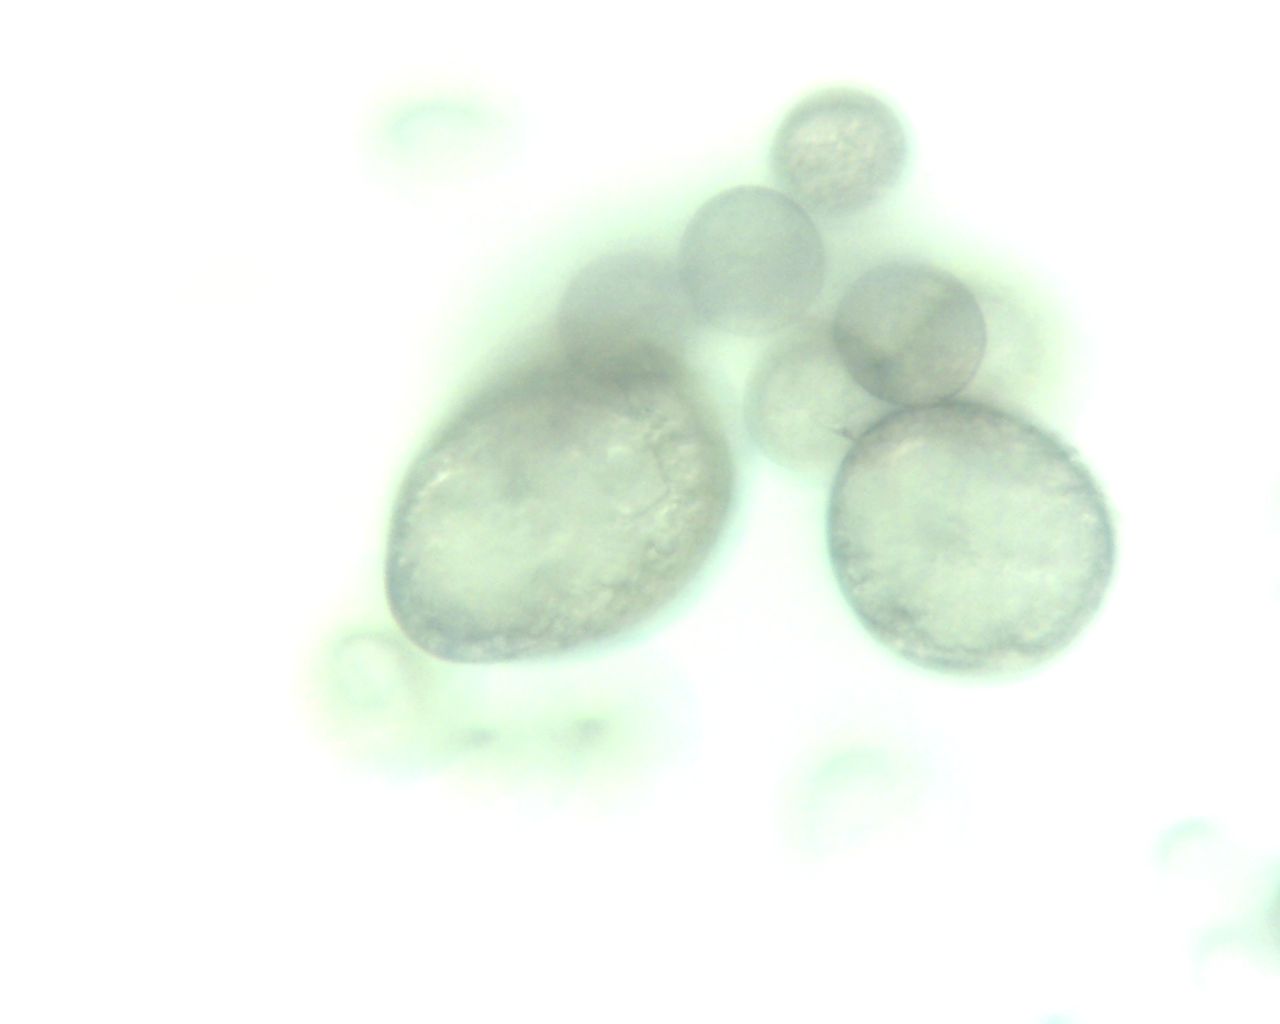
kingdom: Fungi
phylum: Mucoromycota
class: Mucoromycetes
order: Mucorales
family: Rhizopodaceae
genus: Syzygites
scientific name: Syzygites megalocarpus
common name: nissenål
